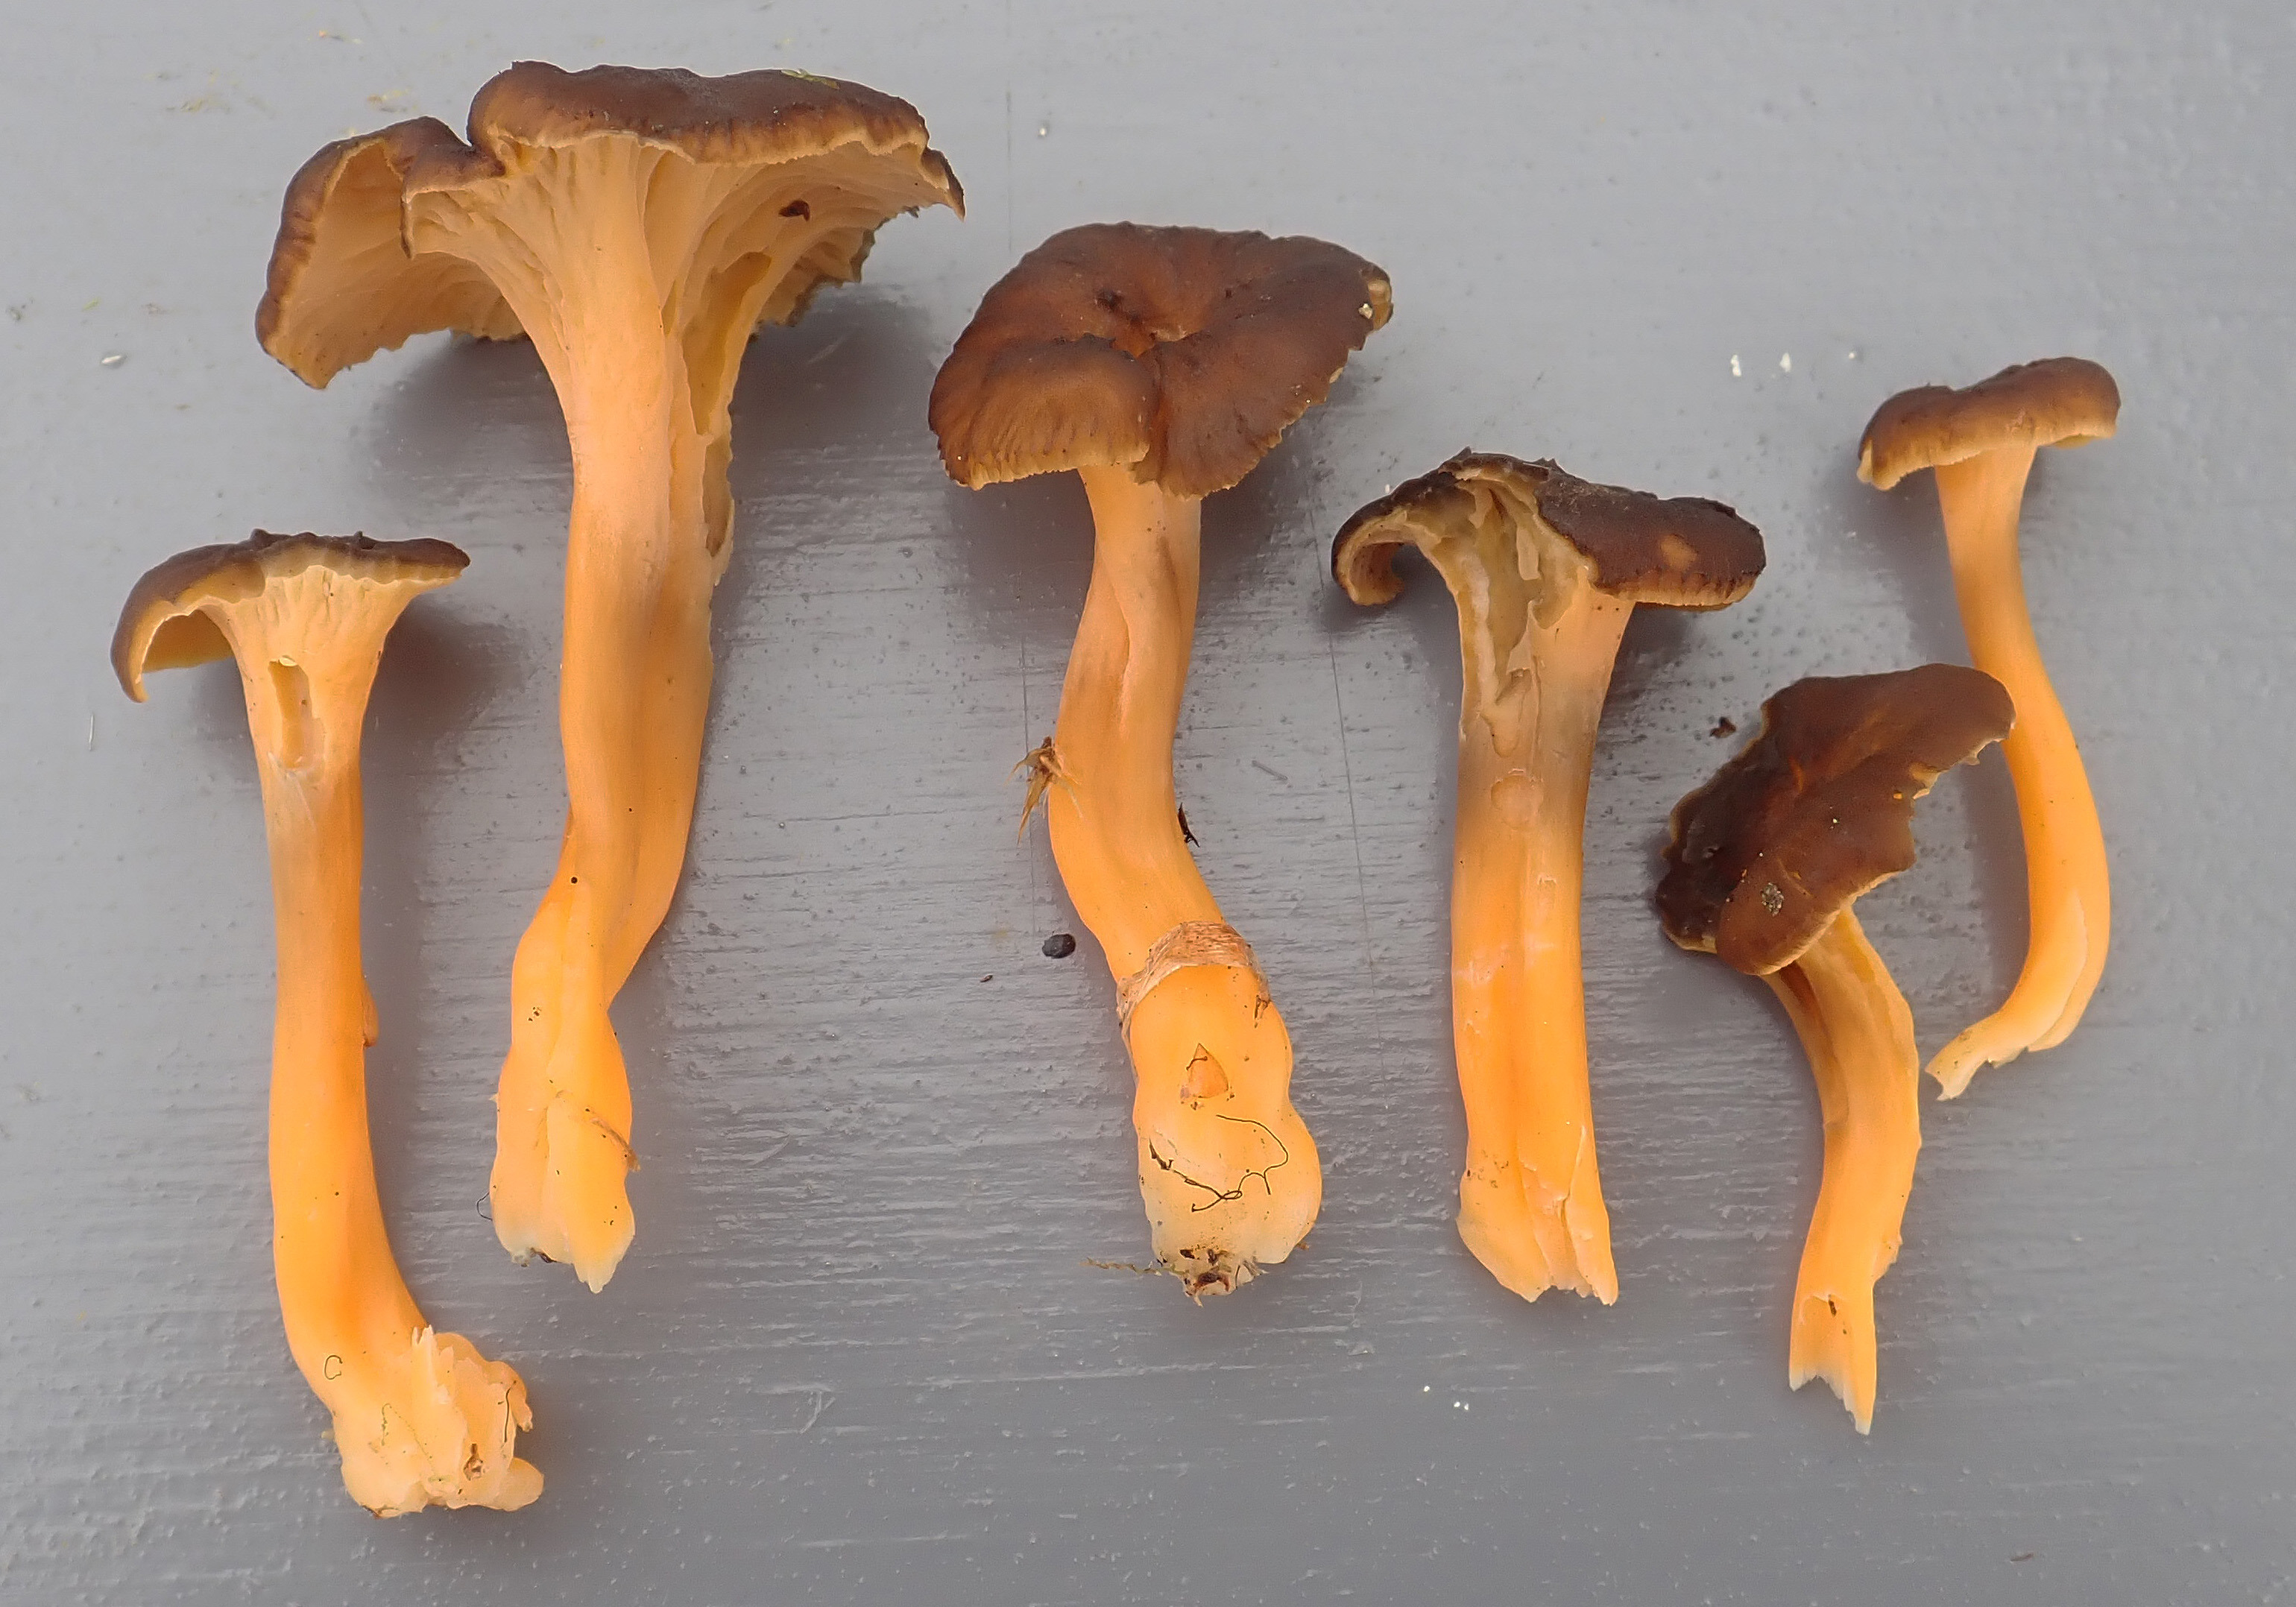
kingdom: Fungi
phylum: Basidiomycota
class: Agaricomycetes
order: Cantharellales
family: Hydnaceae
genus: Craterellus
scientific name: Craterellus lutescens
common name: Golden chanterelle
